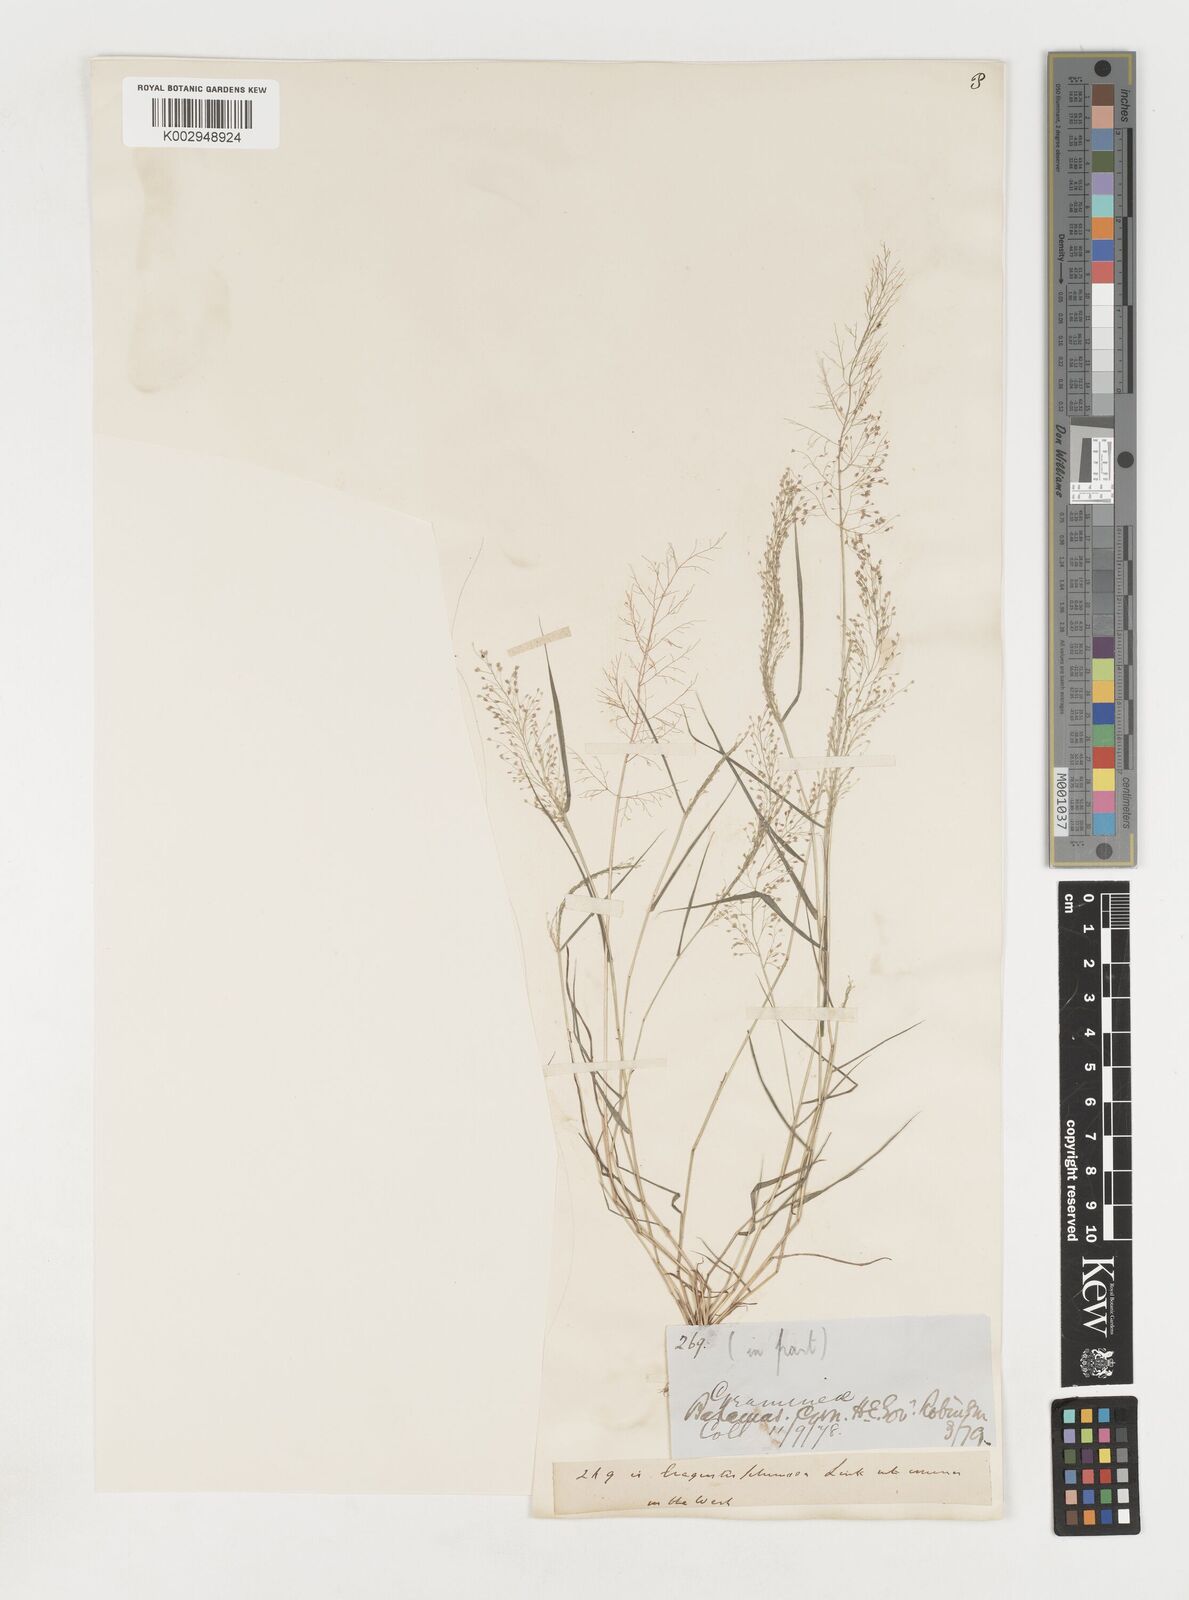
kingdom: Plantae
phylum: Tracheophyta
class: Liliopsida
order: Poales
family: Poaceae
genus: Eragrostis
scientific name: Eragrostis tenella
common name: Japanese lovegrass
